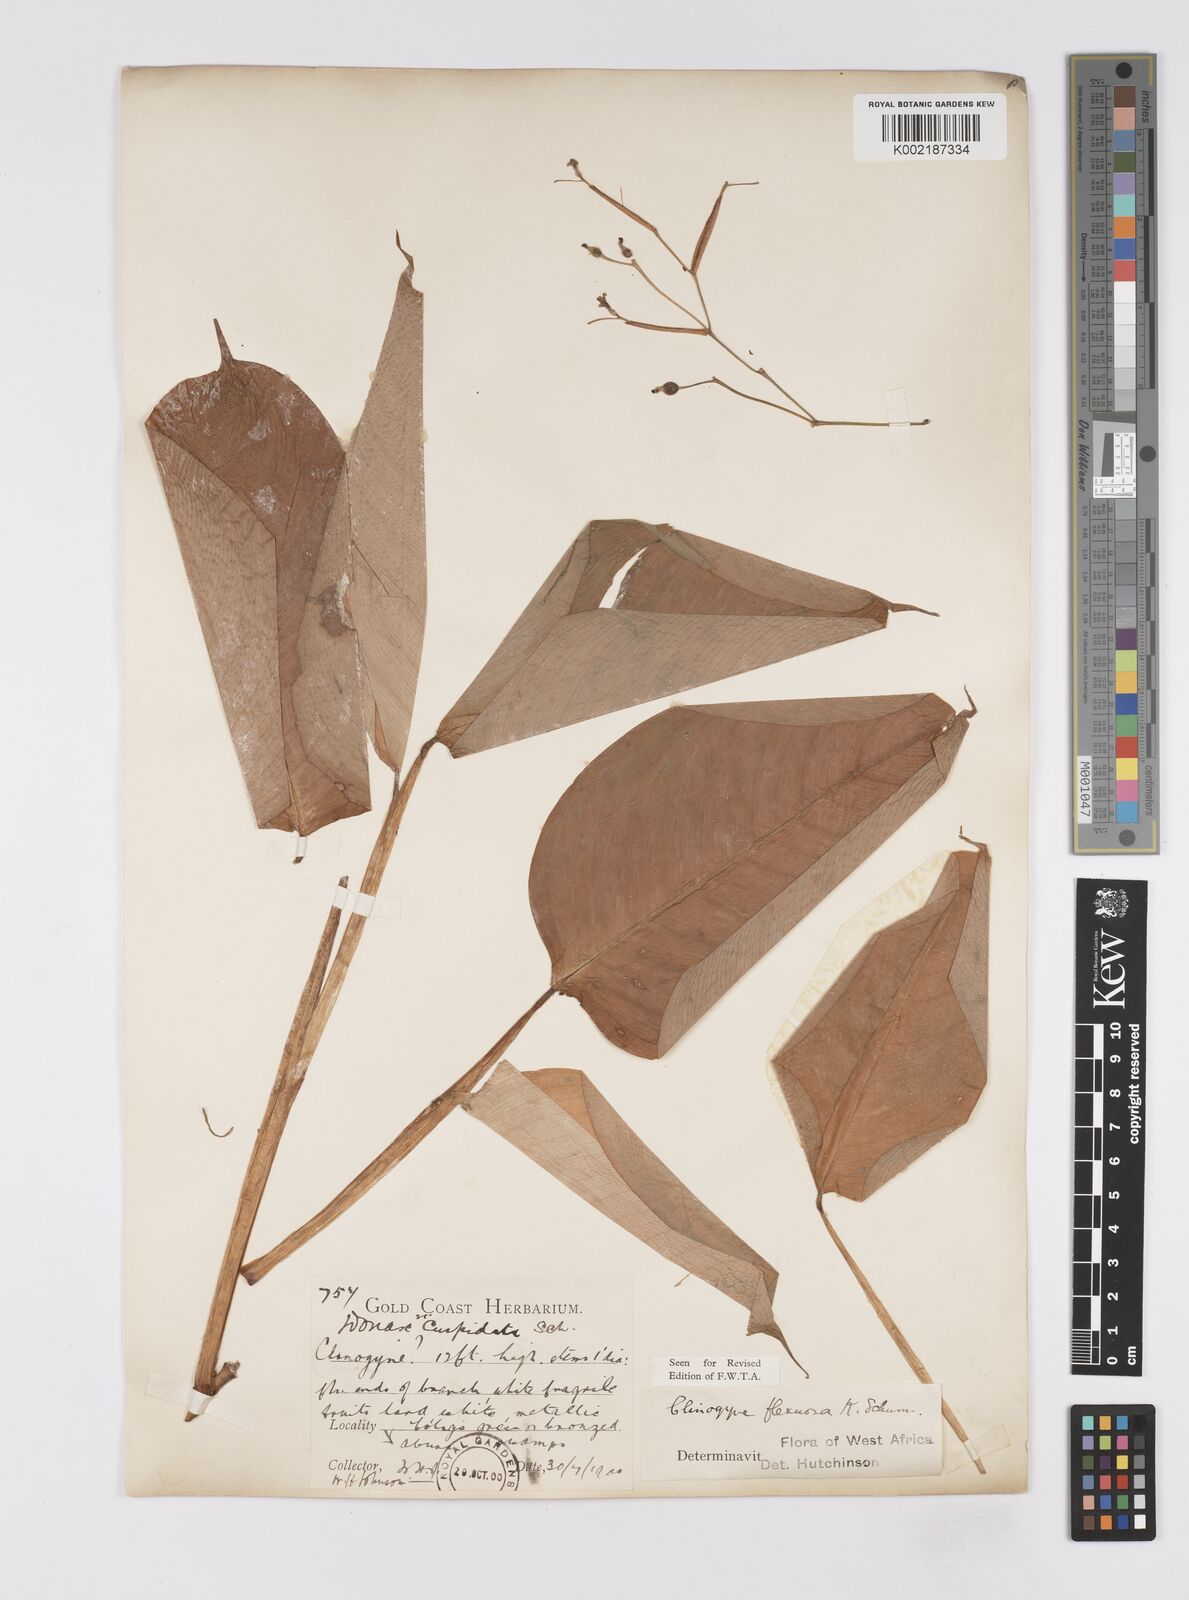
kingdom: Plantae
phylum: Tracheophyta
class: Liliopsida
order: Zingiberales
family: Marantaceae
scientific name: Marantaceae
